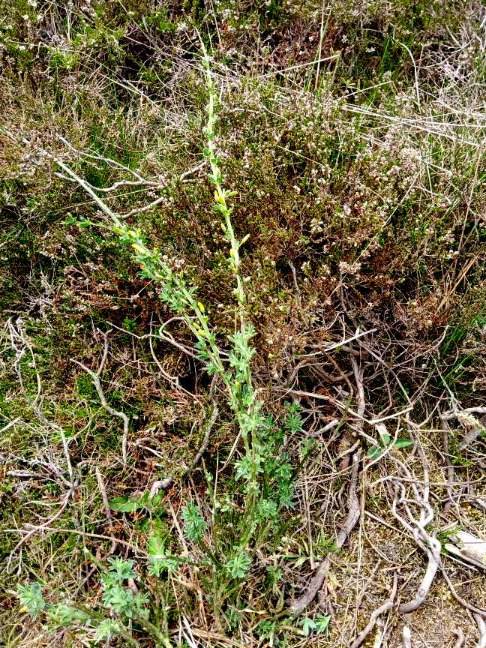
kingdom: Plantae
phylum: Tracheophyta
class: Magnoliopsida
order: Fabales
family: Fabaceae
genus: Cytisus
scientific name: Cytisus scoparius
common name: Almindelig gyvel
